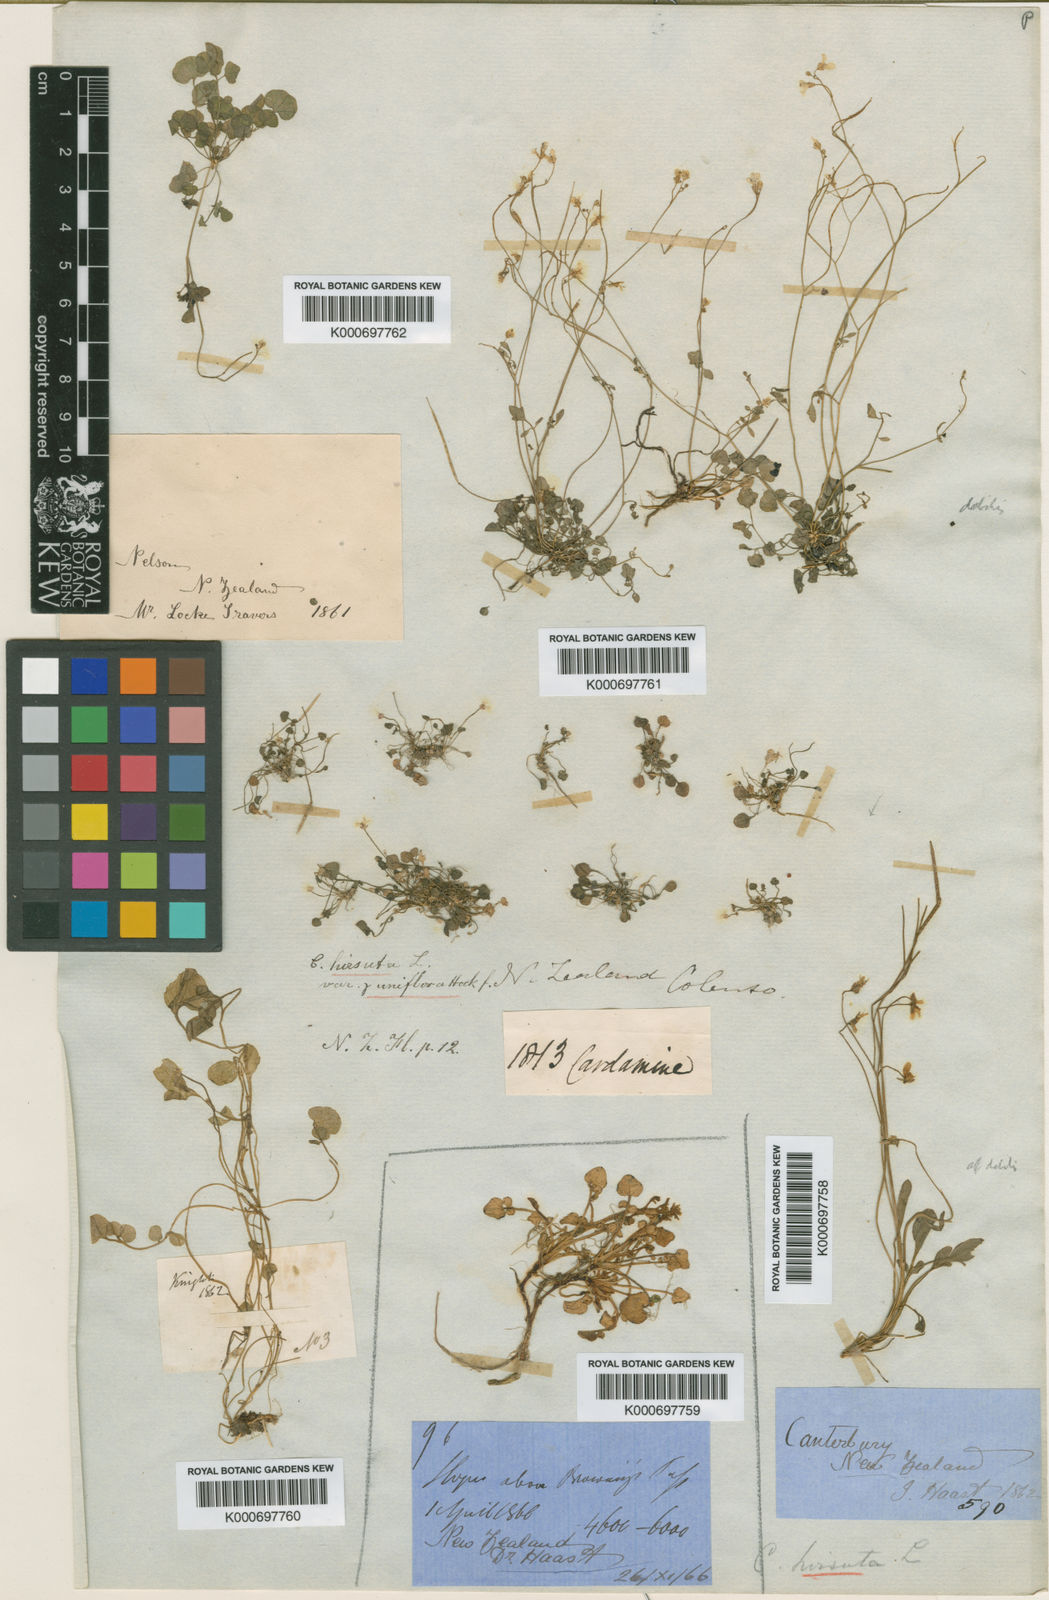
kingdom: Plantae
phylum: Tracheophyta
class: Magnoliopsida
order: Brassicales
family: Brassicaceae
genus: Leavenworthia
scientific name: Leavenworthia uniflora
